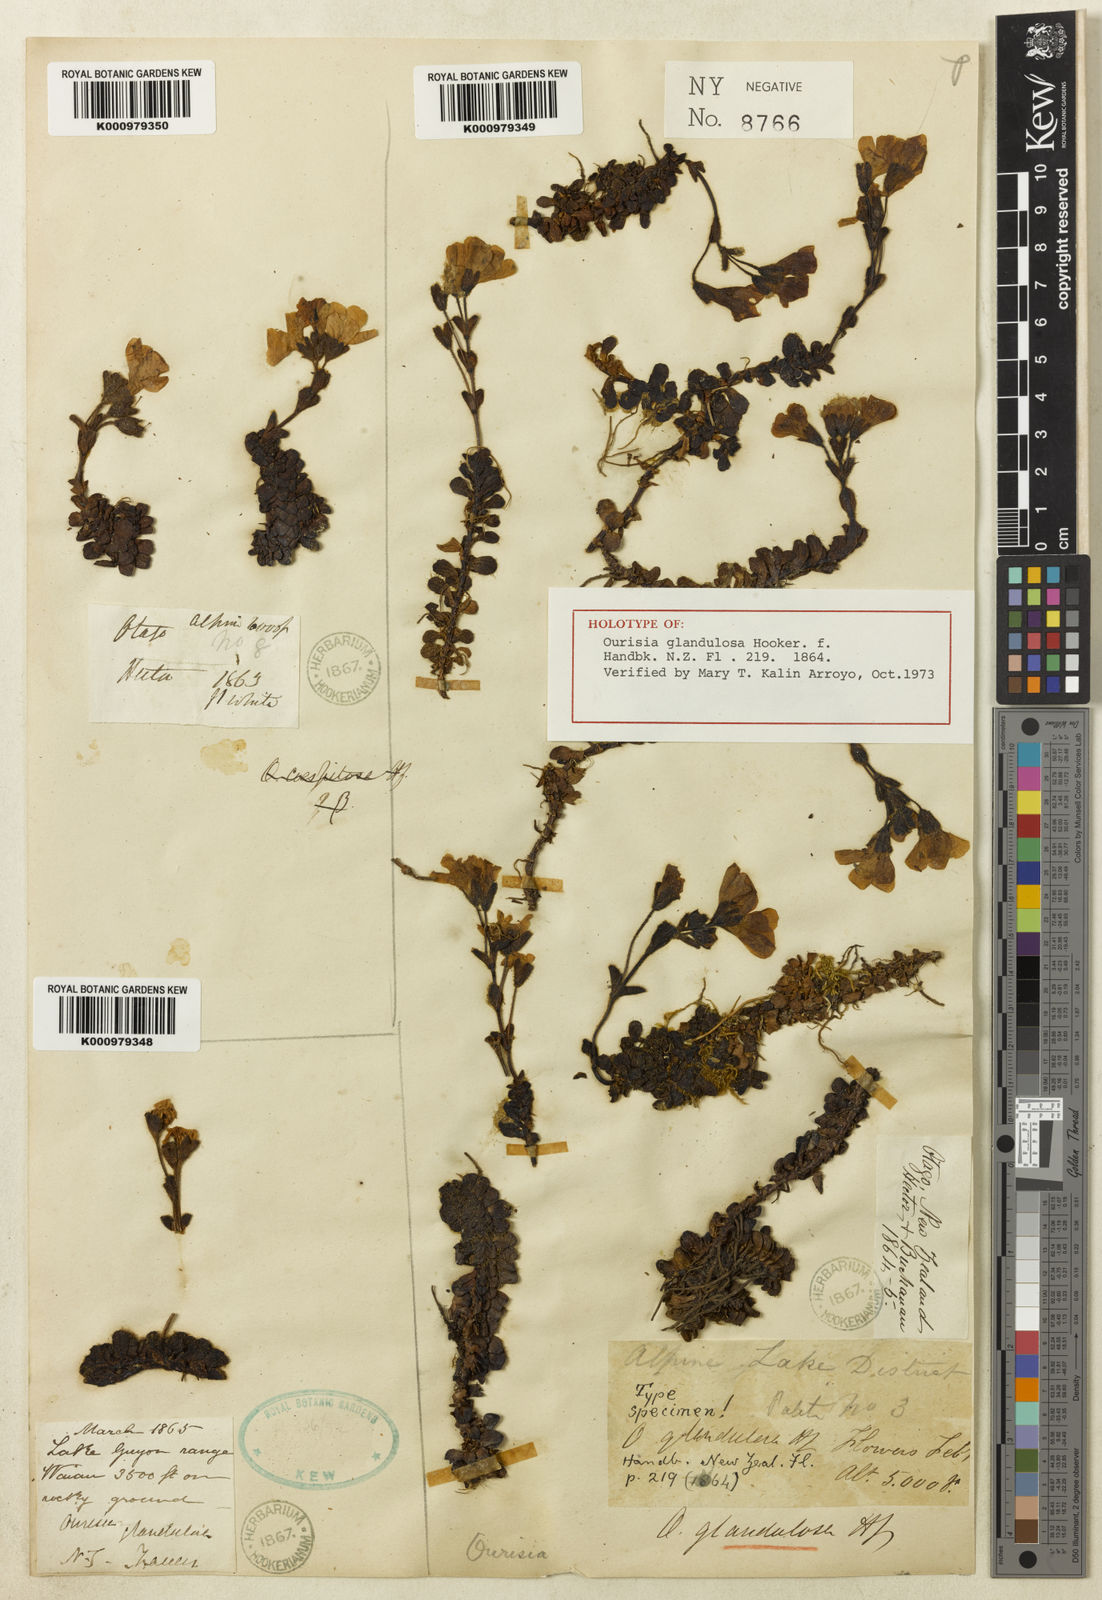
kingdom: Plantae
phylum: Tracheophyta
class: Magnoliopsida
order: Lamiales
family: Plantaginaceae
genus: Ourisia
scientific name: Ourisia glandulosa
